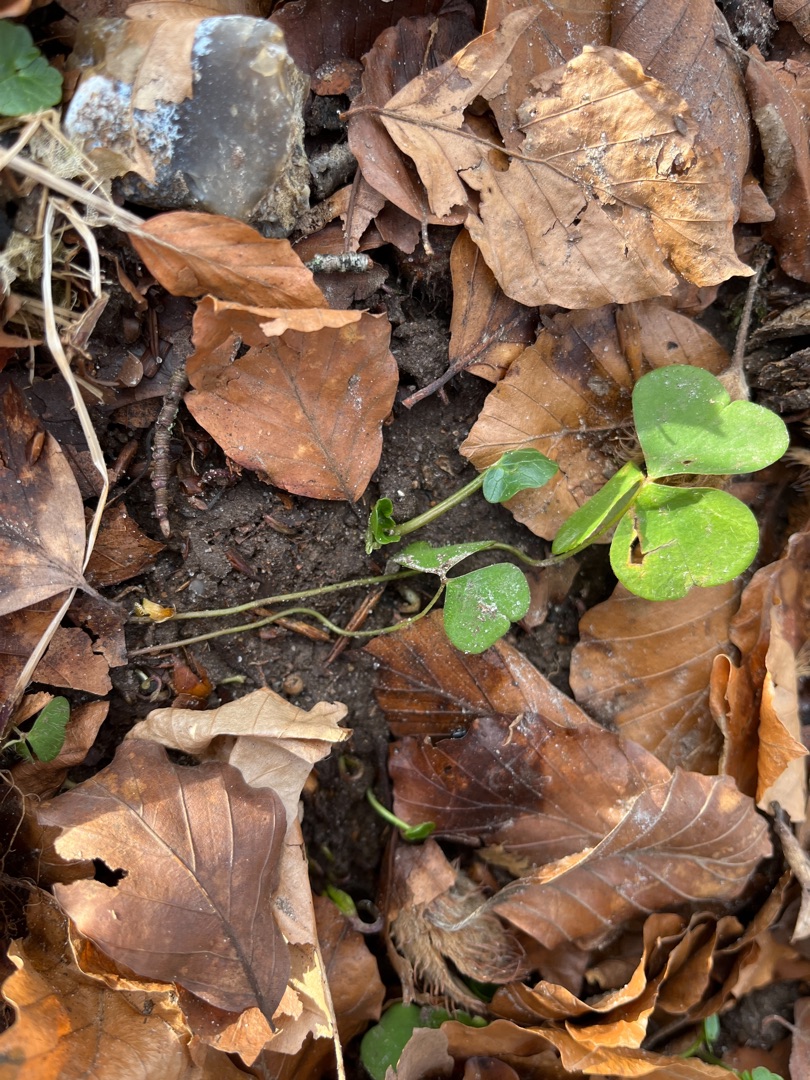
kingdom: Plantae
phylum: Tracheophyta
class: Magnoliopsida
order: Oxalidales
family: Oxalidaceae
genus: Oxalis
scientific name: Oxalis acetosella
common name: Skovsyre
